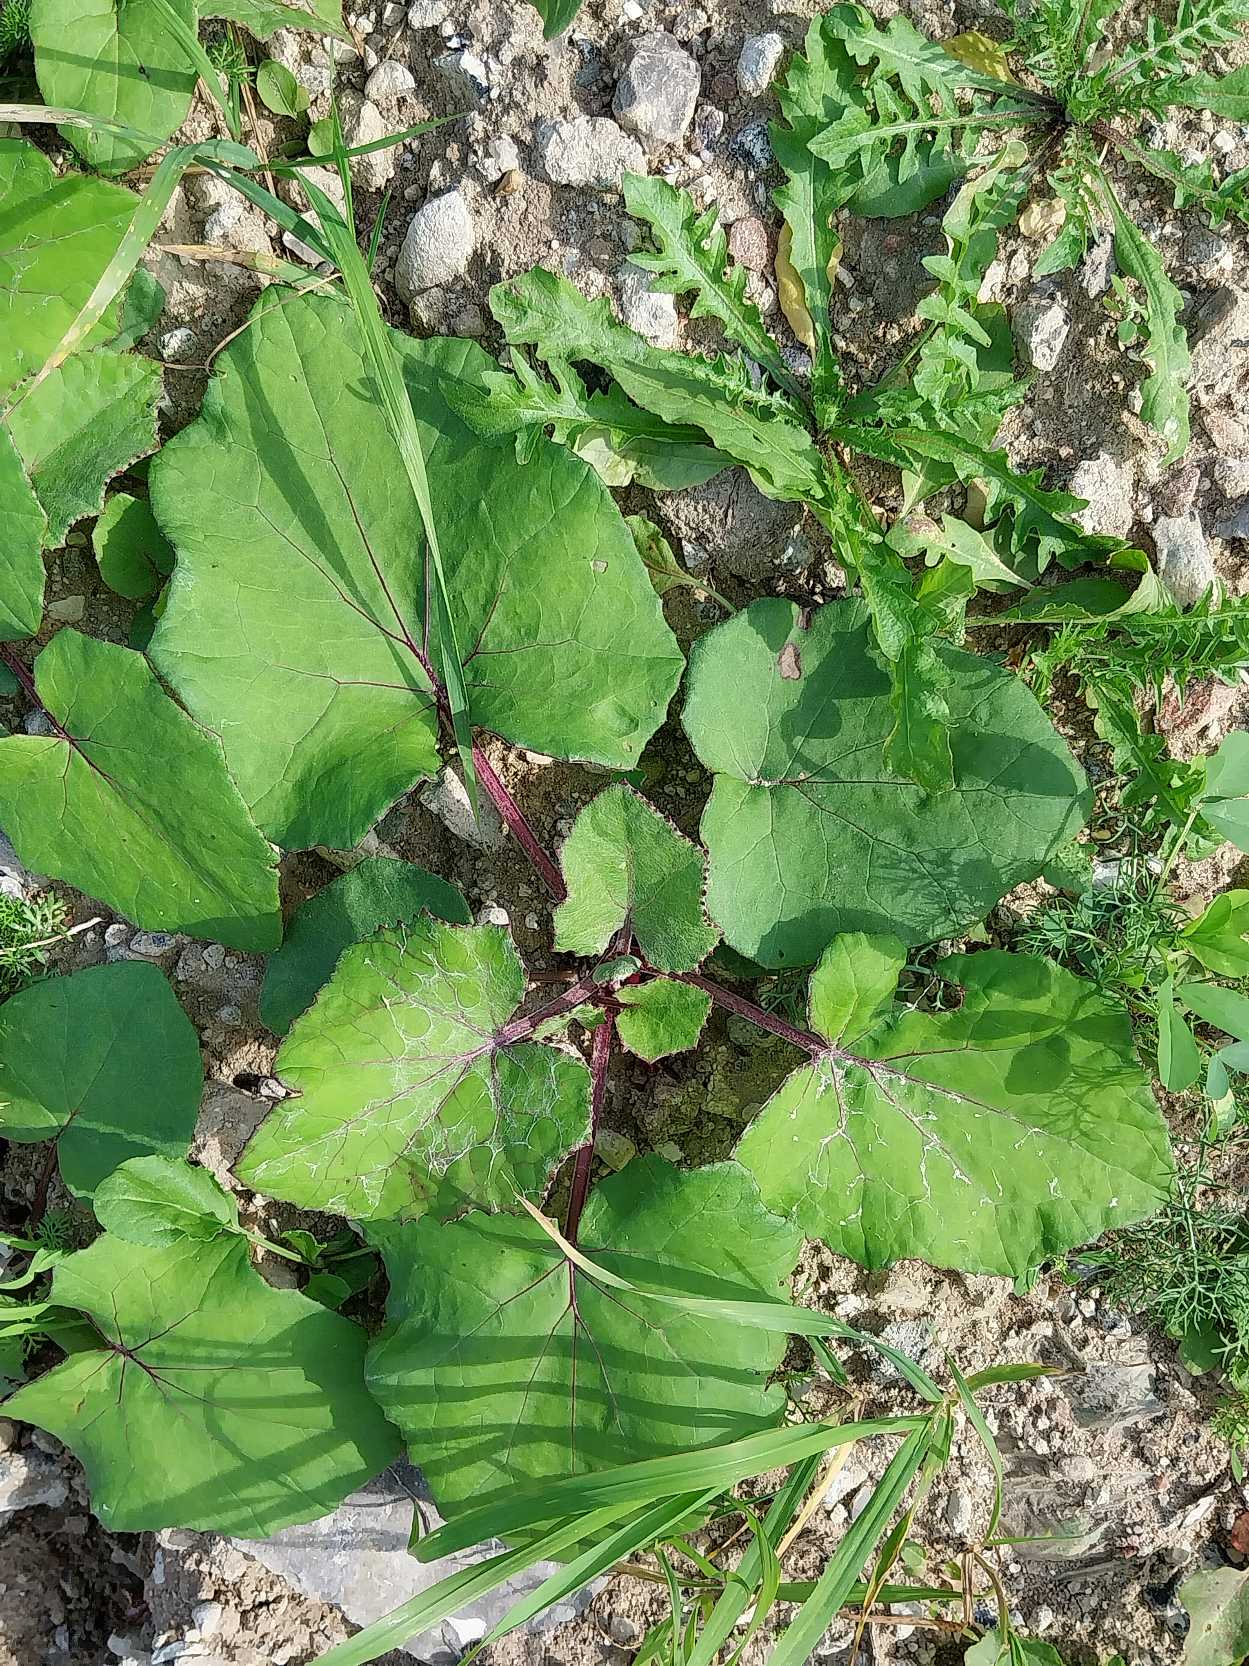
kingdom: Plantae
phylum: Tracheophyta
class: Magnoliopsida
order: Asterales
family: Asteraceae
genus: Tussilago
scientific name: Tussilago farfara
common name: Følfod
